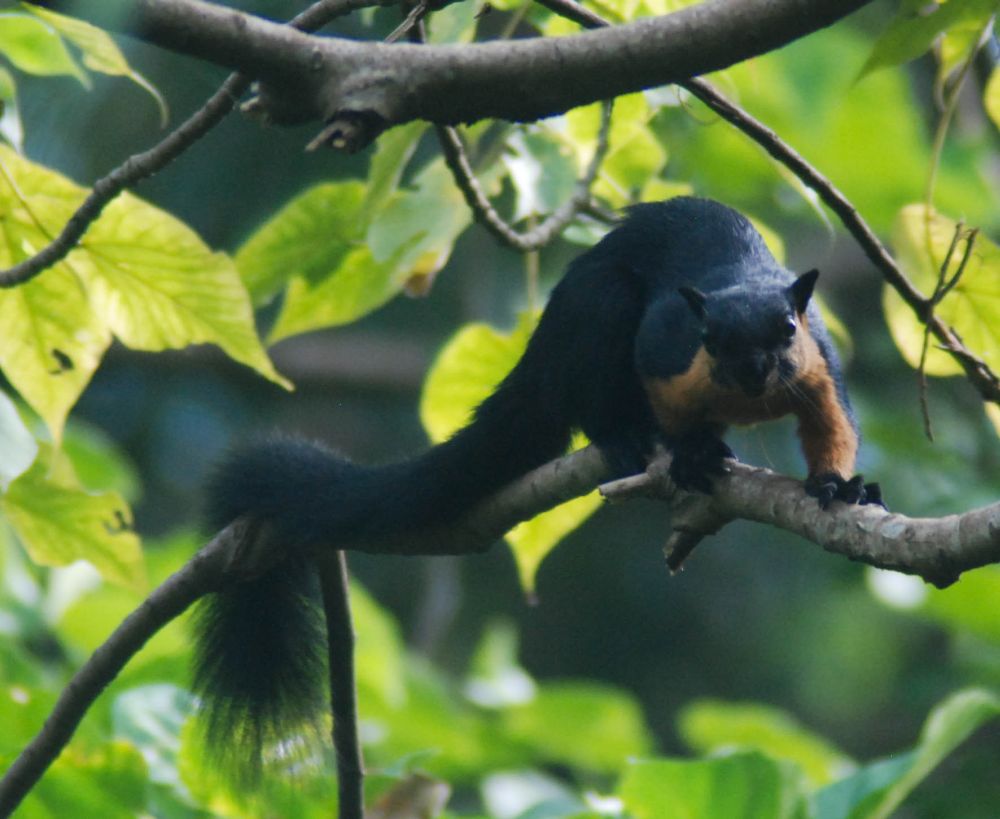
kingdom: Animalia
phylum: Chordata
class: Mammalia
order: Rodentia
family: Sciuridae
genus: Ratufa
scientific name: Ratufa bicolor
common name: Black giant squirrel
